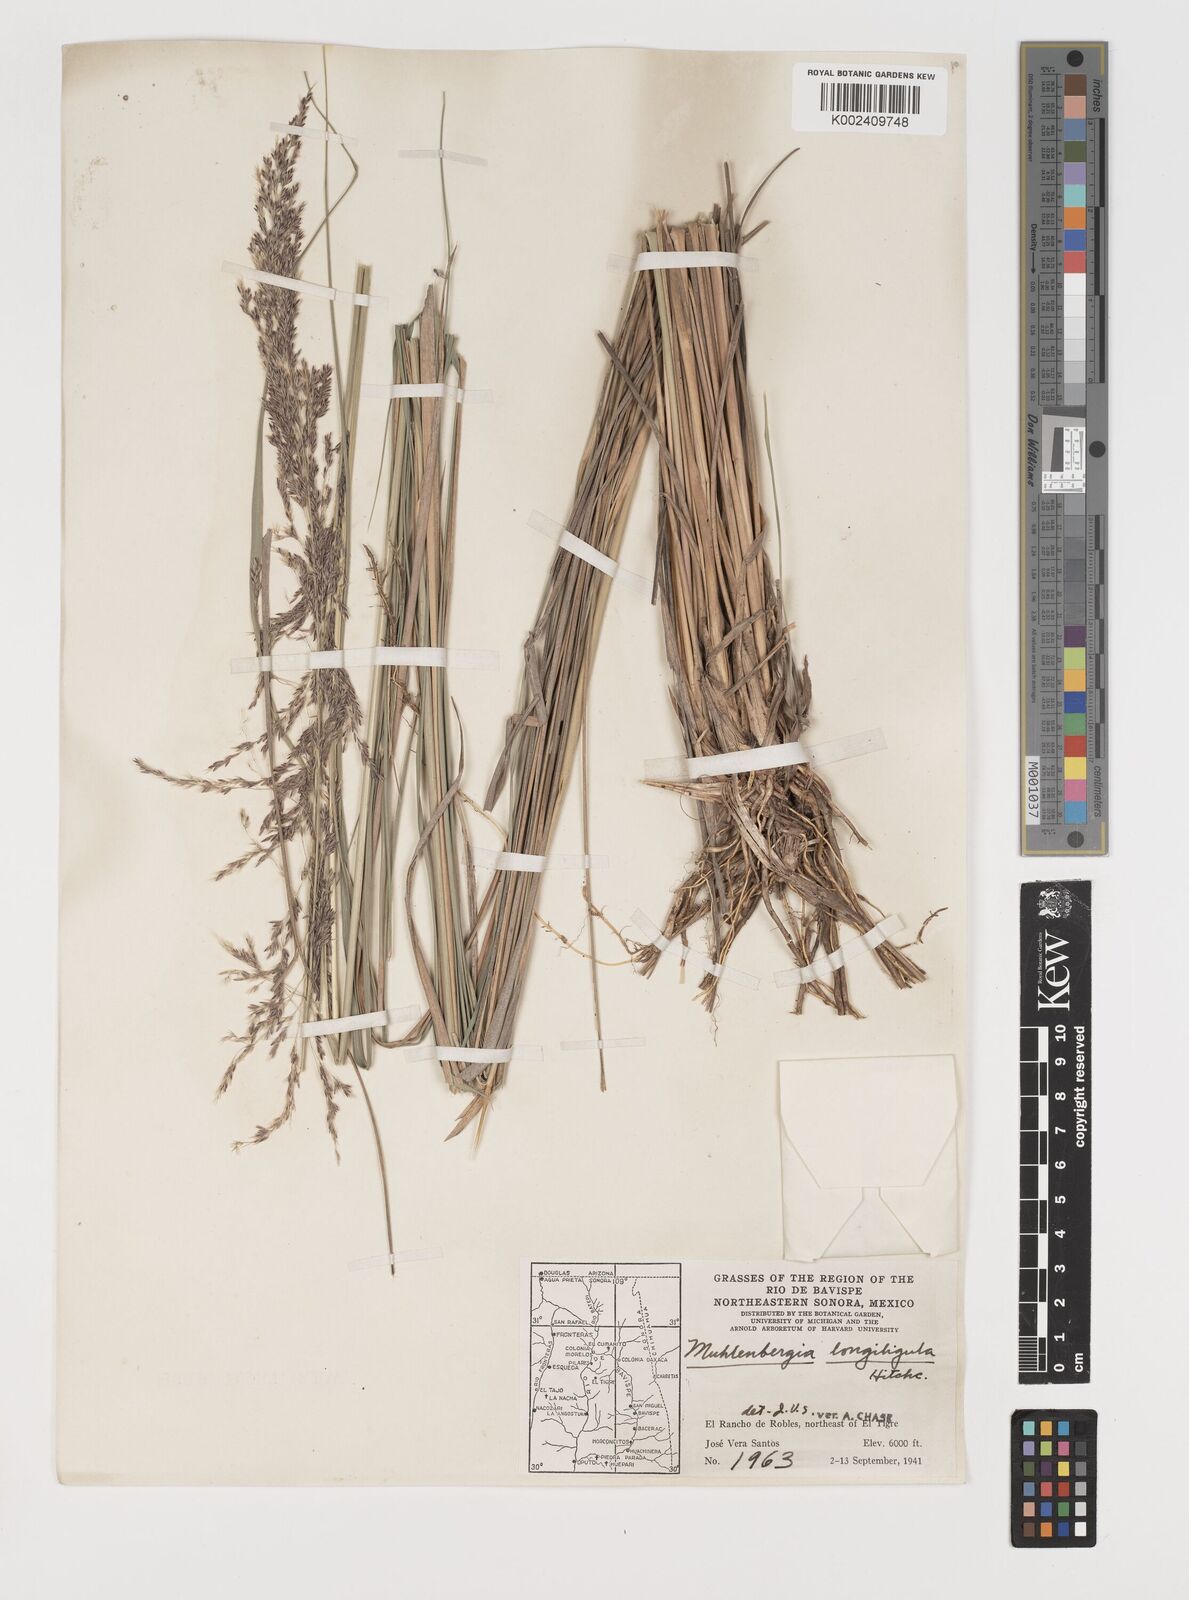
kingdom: Plantae
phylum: Tracheophyta
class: Liliopsida
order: Poales
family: Poaceae
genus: Muhlenbergia
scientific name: Muhlenbergia longiligula
